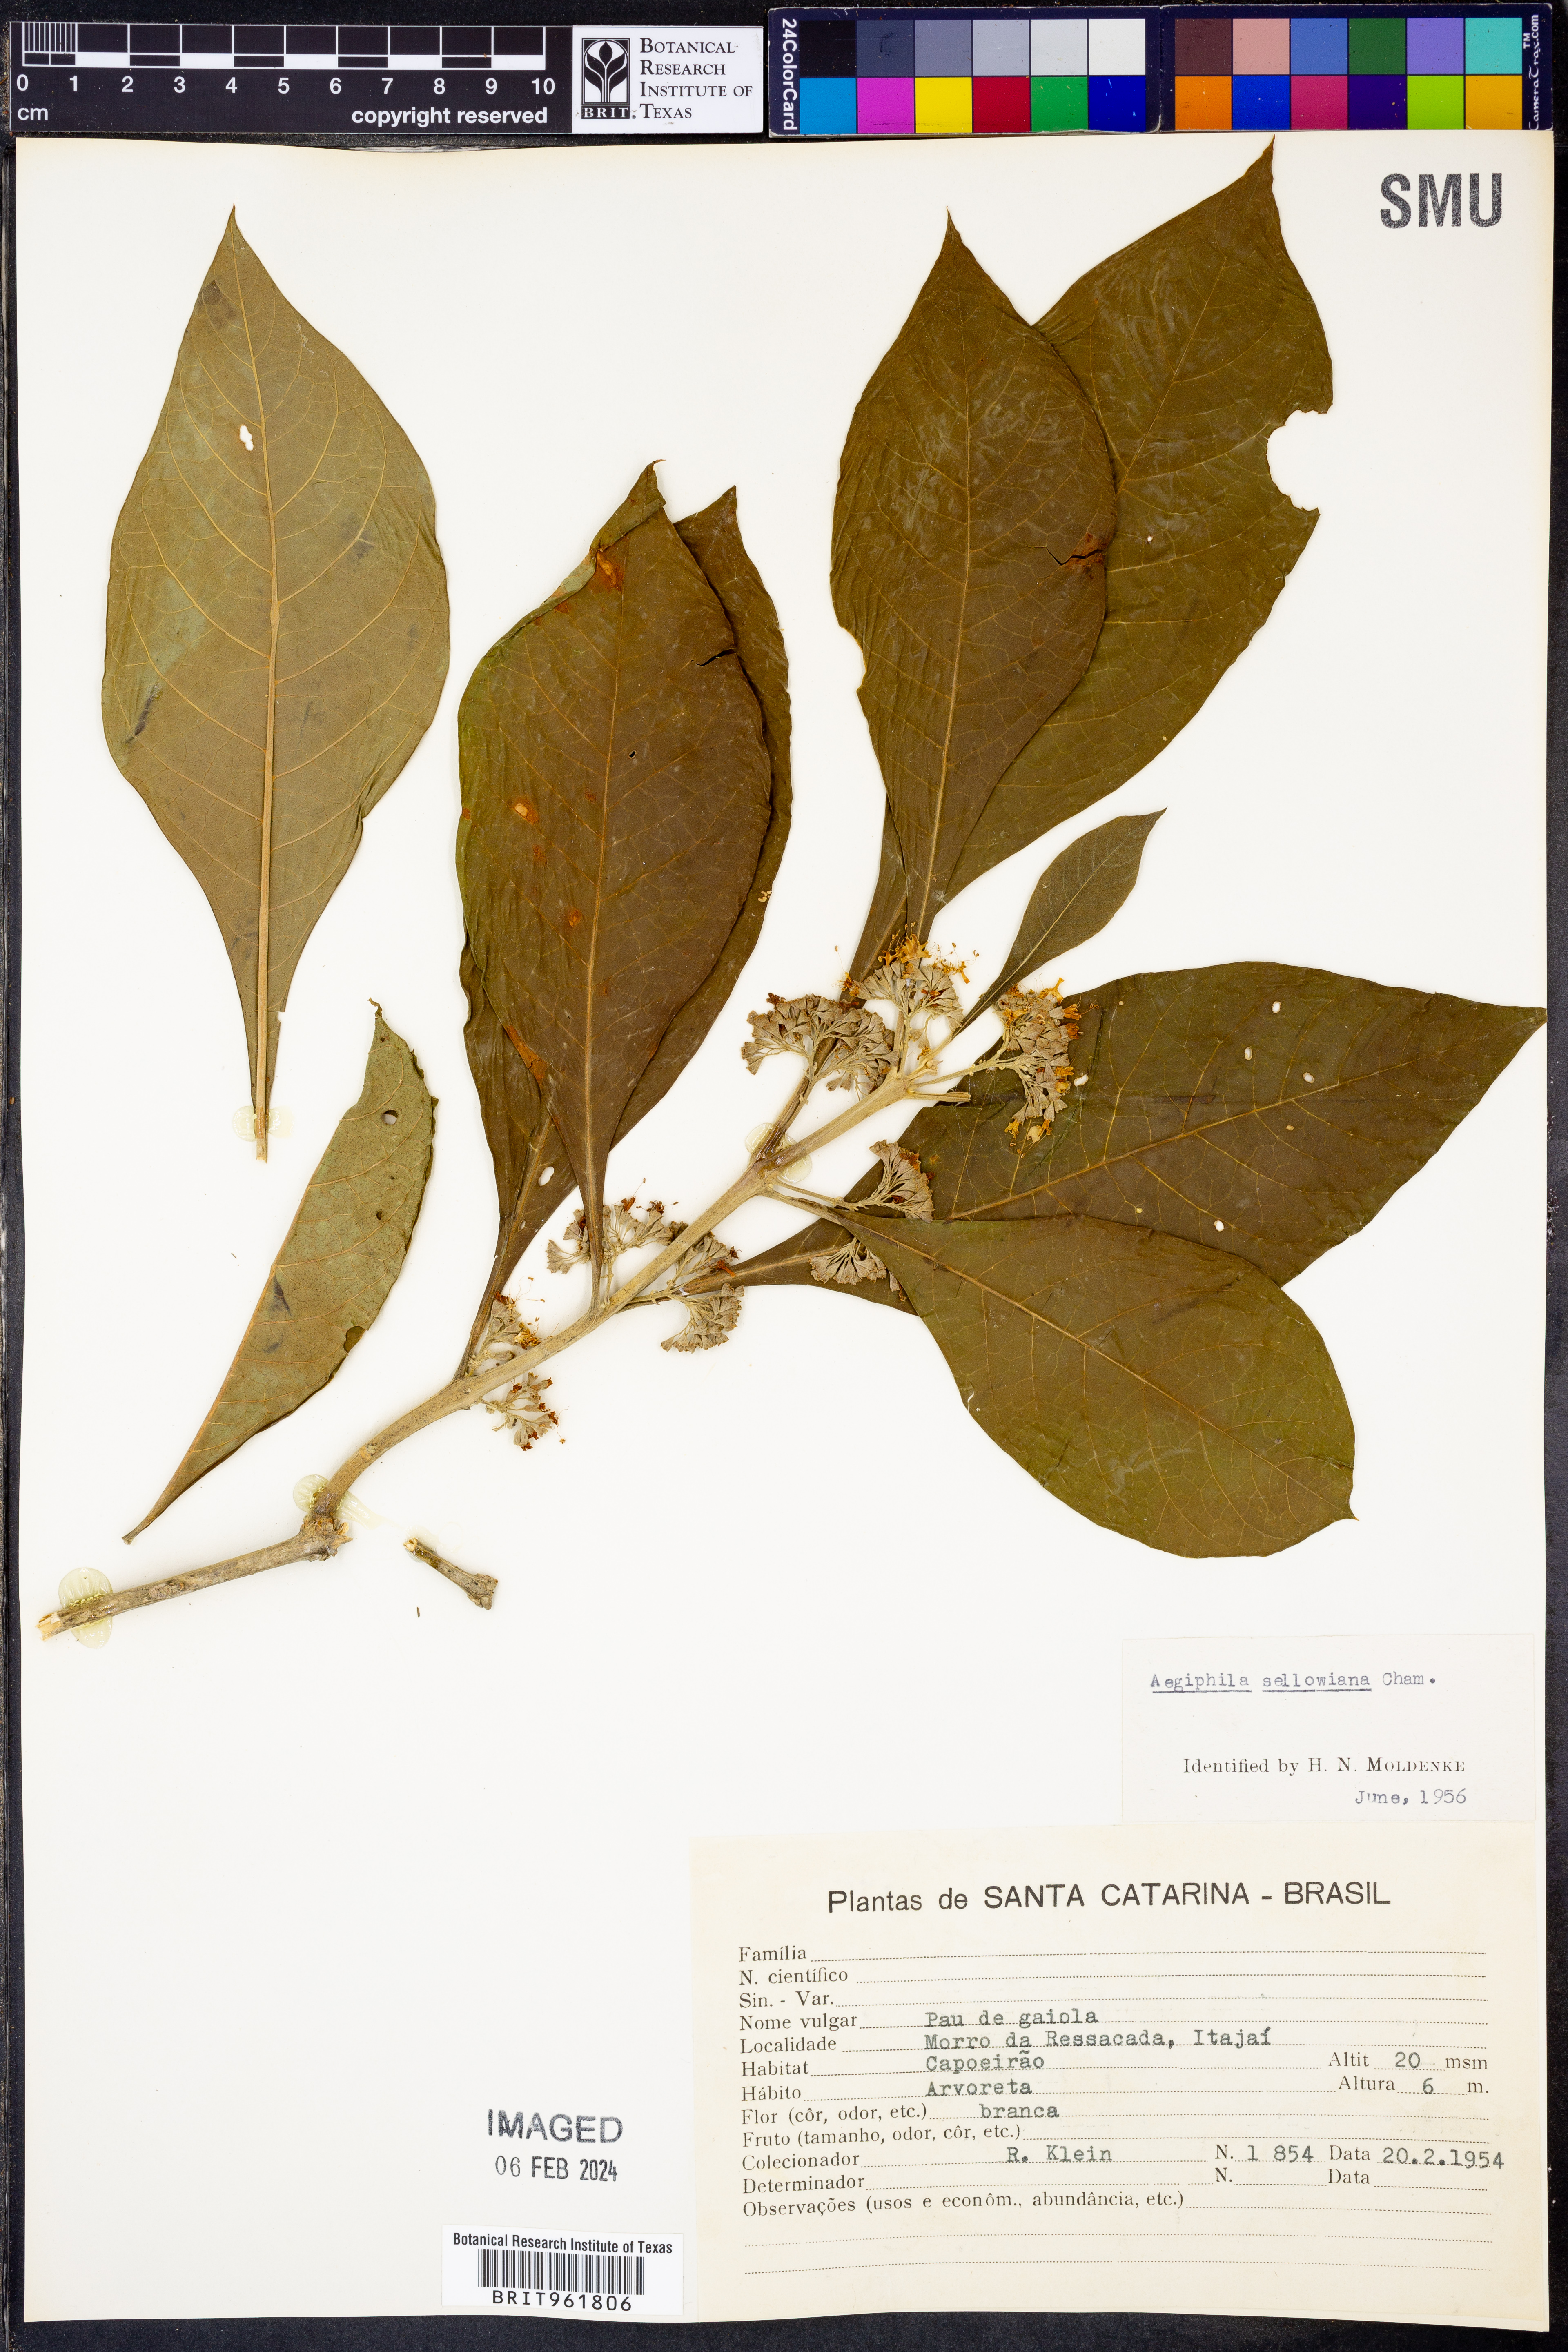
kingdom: Plantae
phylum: Tracheophyta
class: Magnoliopsida
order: Lamiales
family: Lamiaceae
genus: Aegiphila
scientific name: Aegiphila
